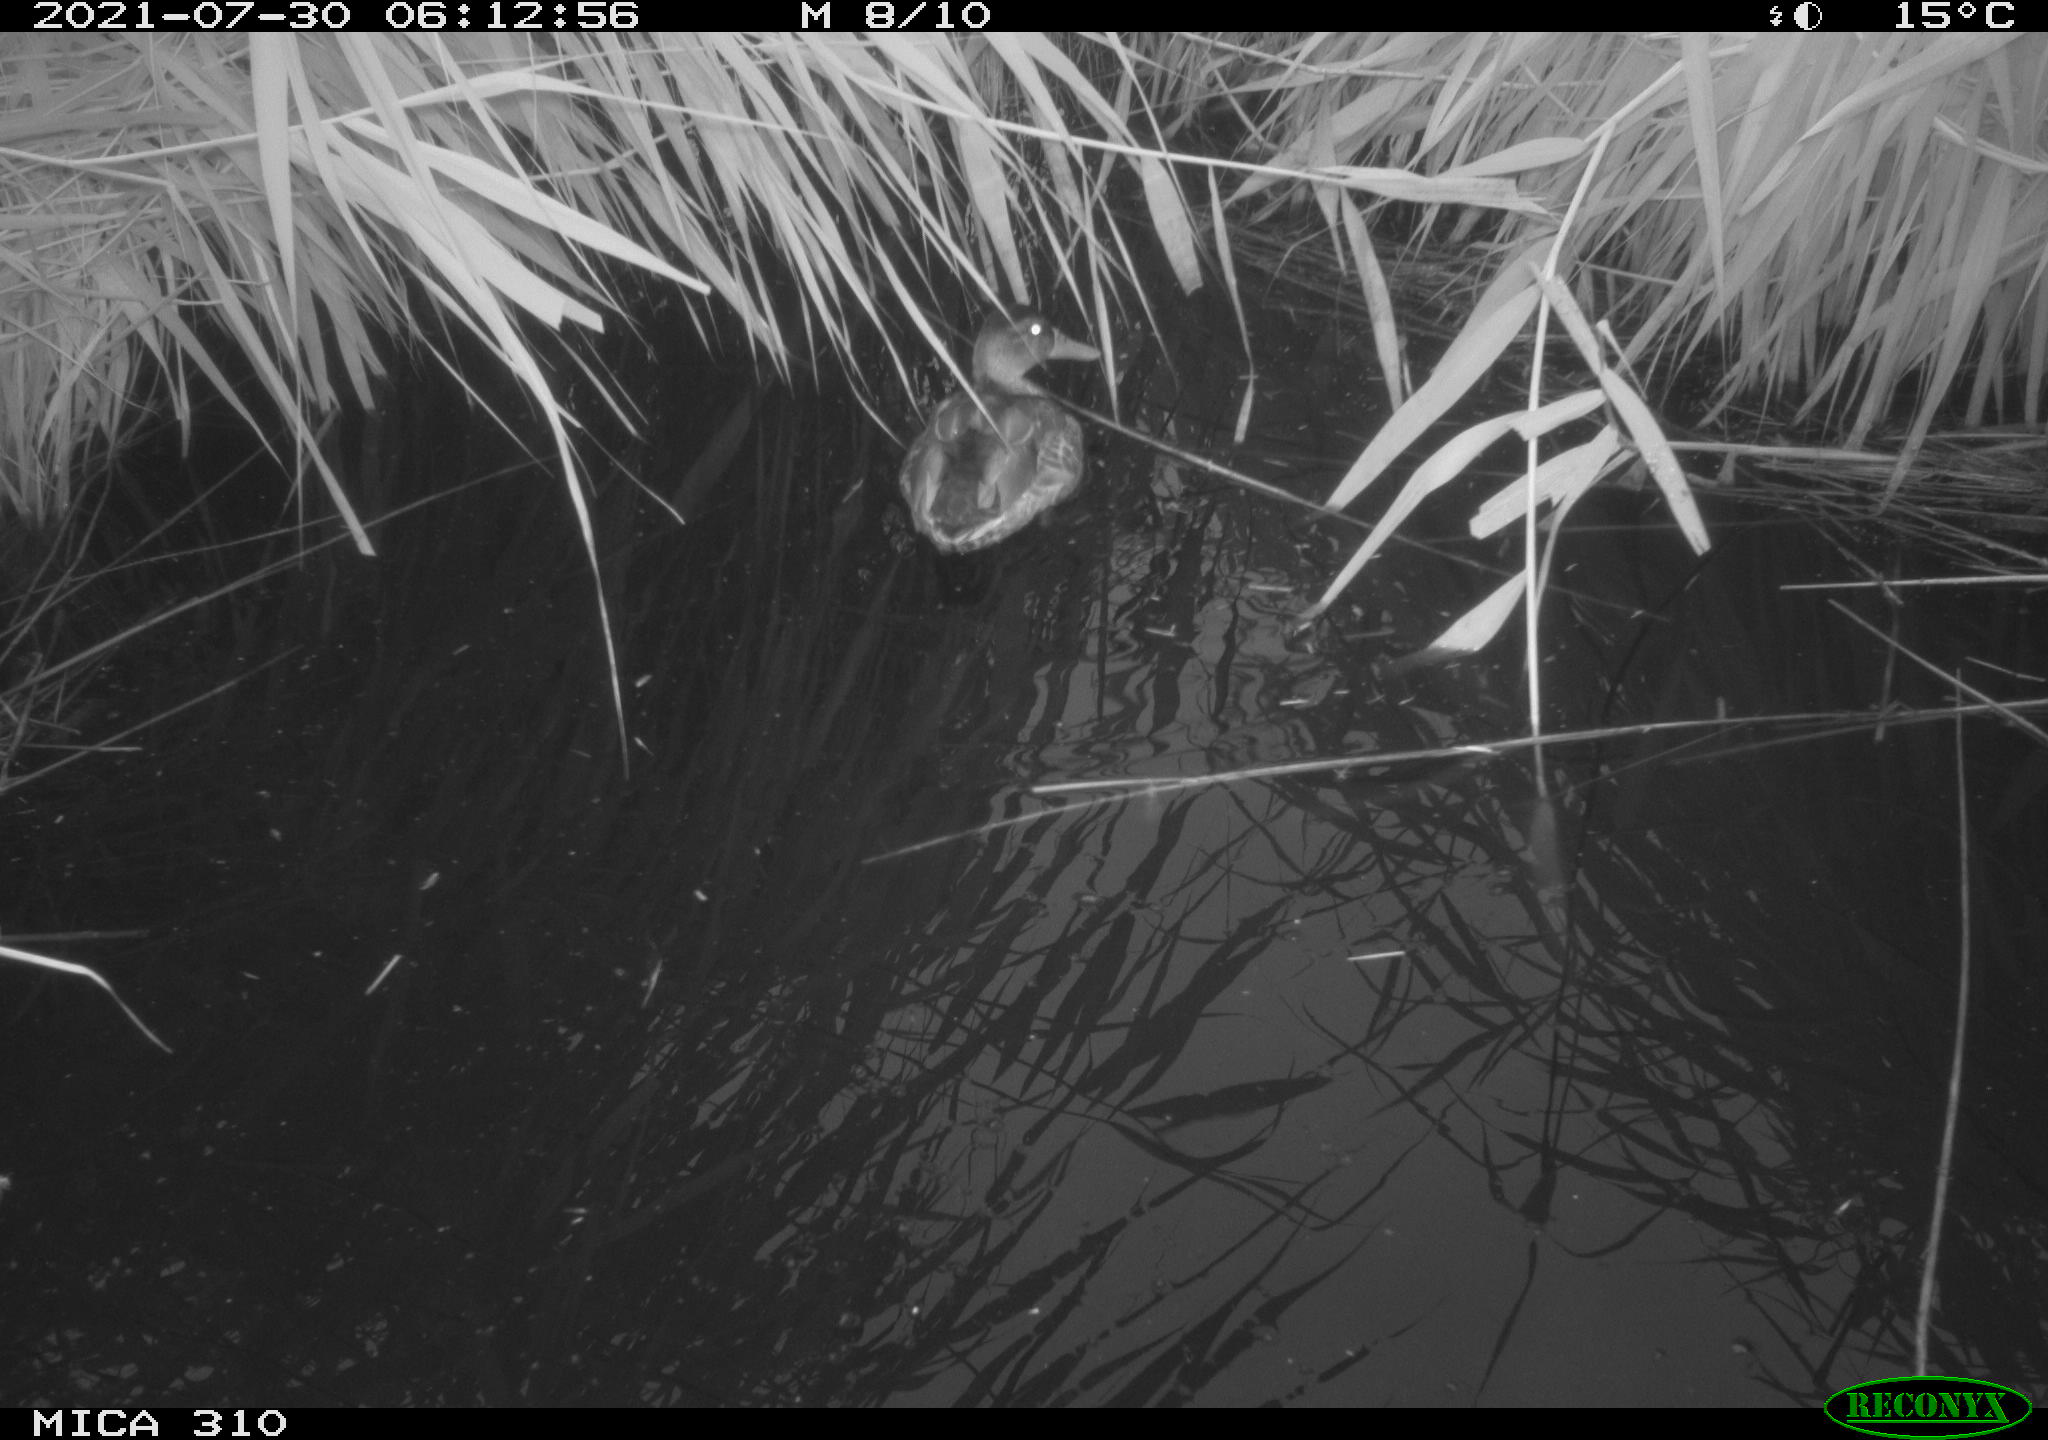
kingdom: Animalia
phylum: Chordata
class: Aves
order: Gruiformes
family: Rallidae
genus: Gallinula
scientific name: Gallinula chloropus
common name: Common moorhen
